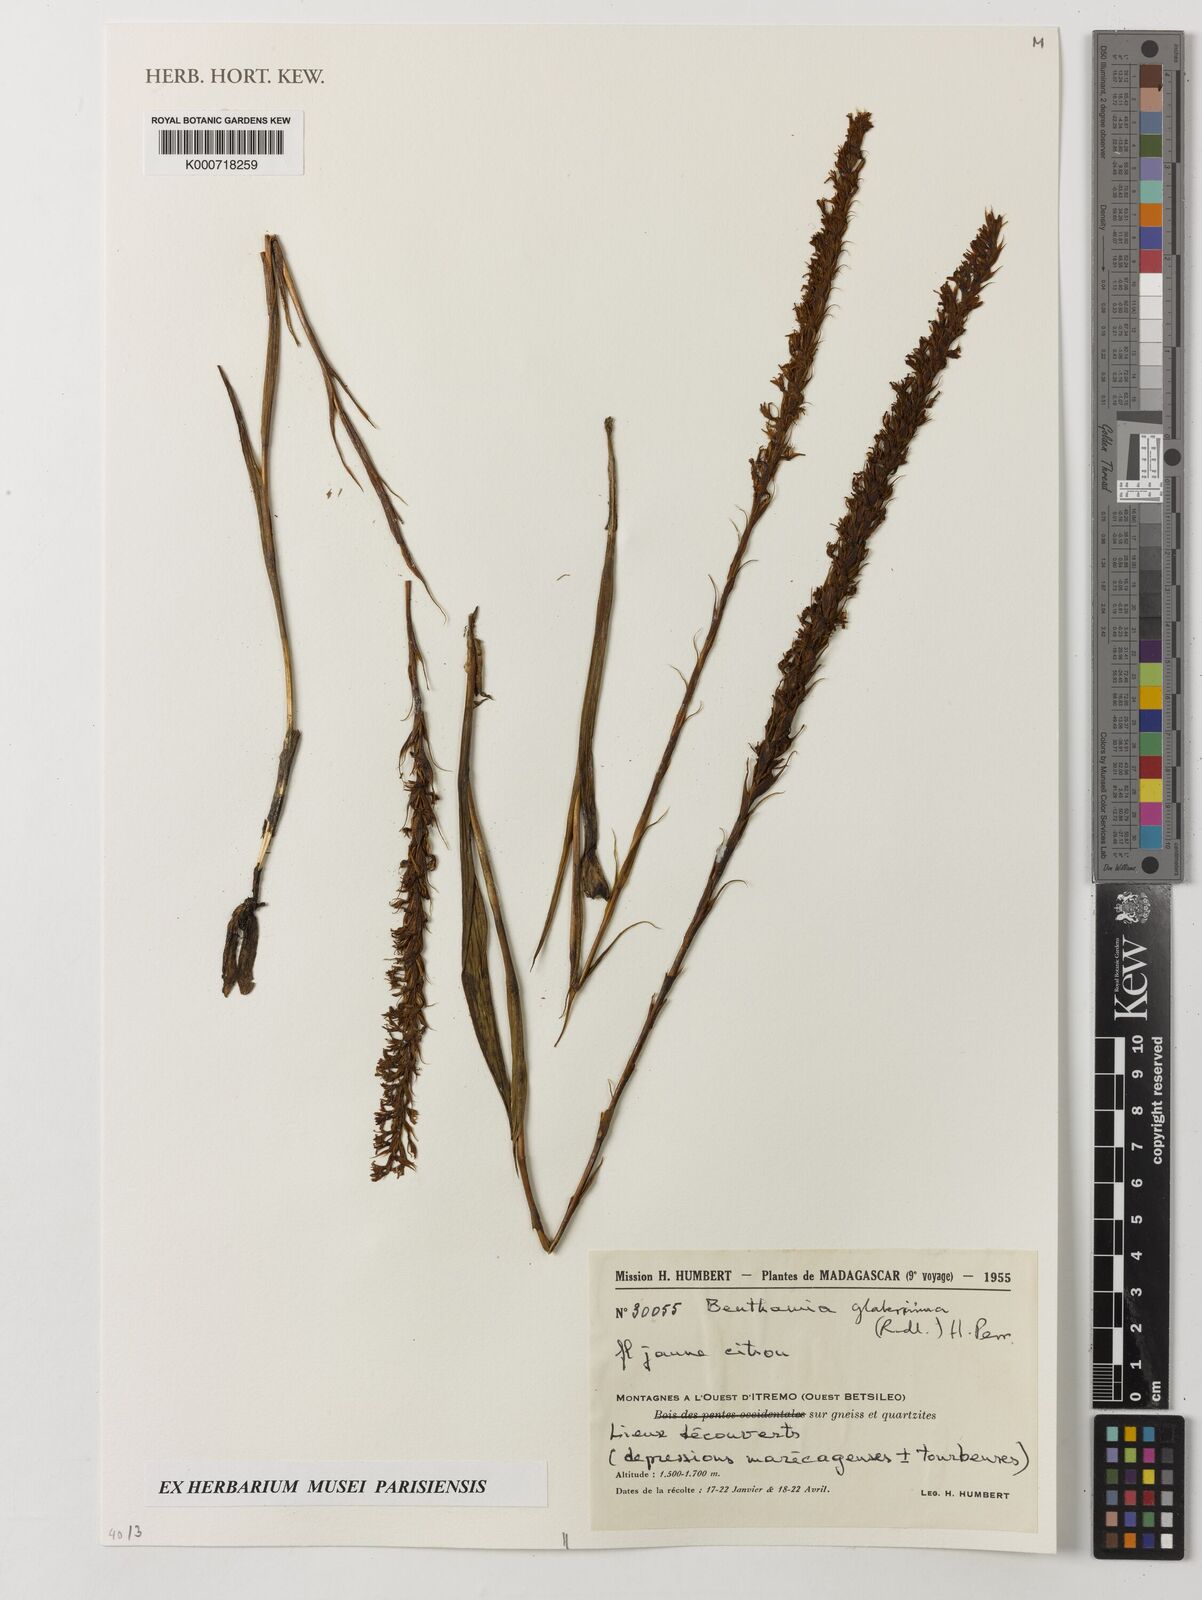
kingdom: Plantae
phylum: Tracheophyta
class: Liliopsida
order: Asparagales
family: Orchidaceae
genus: Benthamia
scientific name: Benthamia
